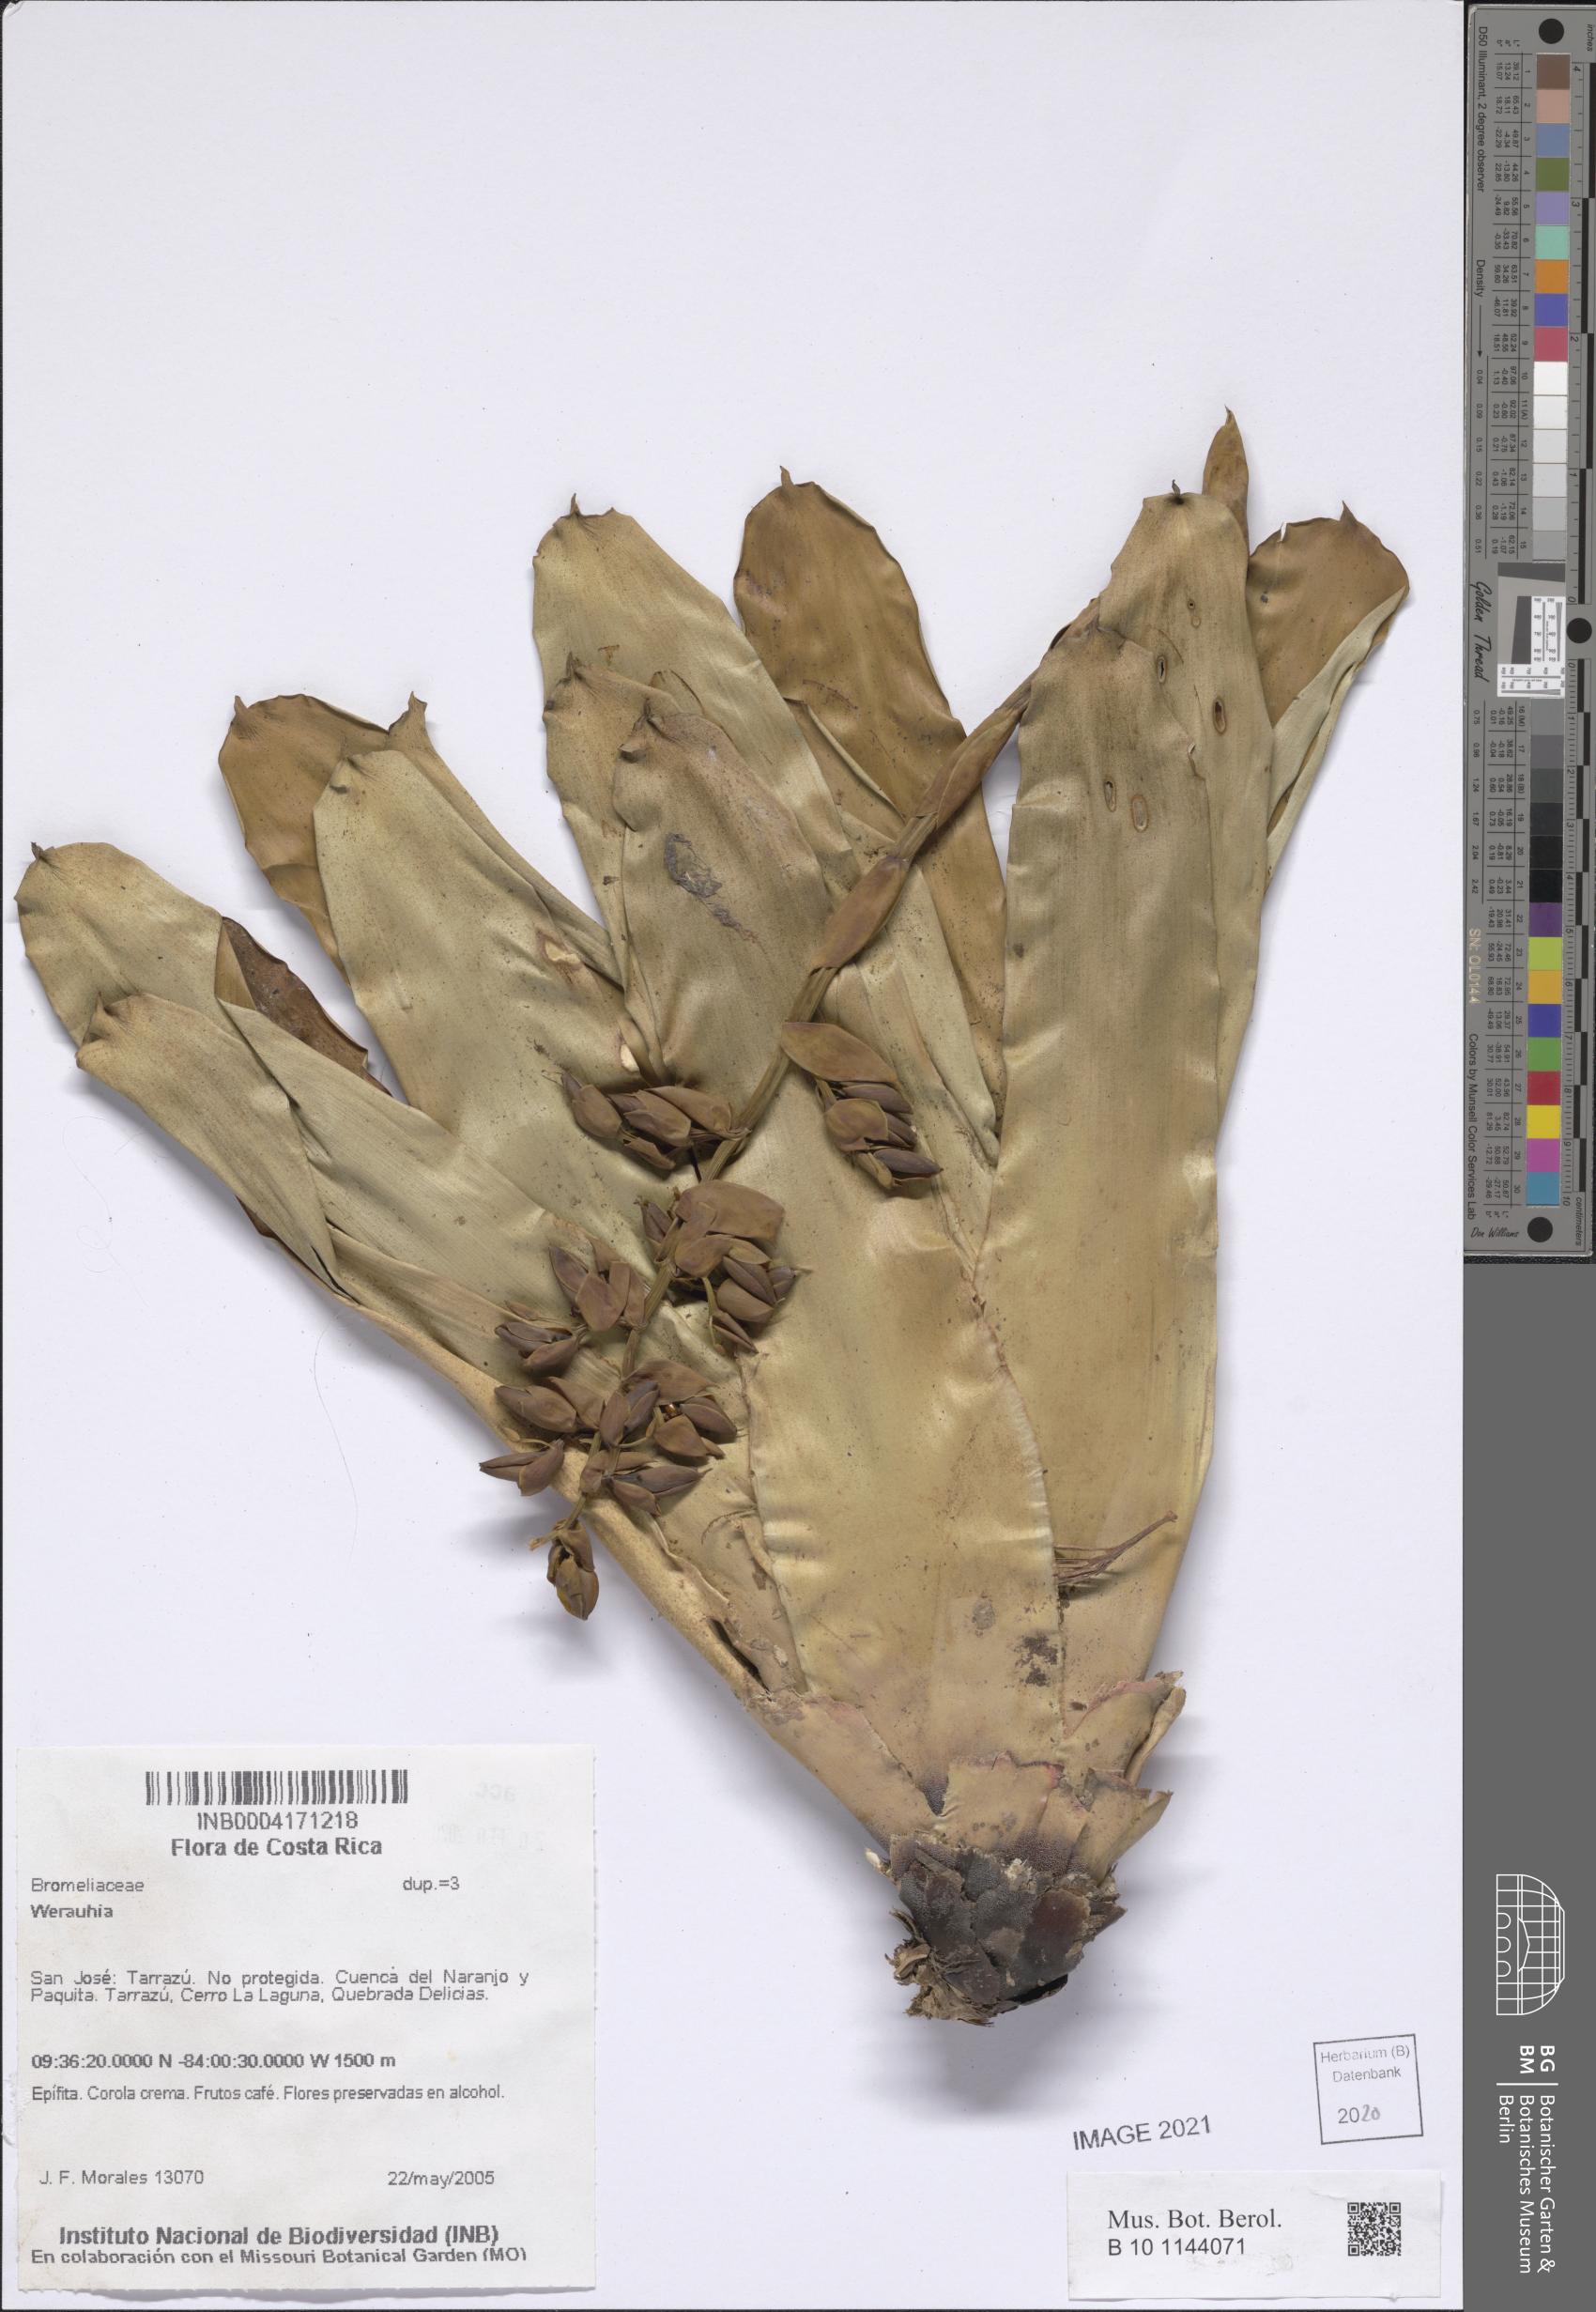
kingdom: Plantae
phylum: Tracheophyta
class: Liliopsida
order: Poales
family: Bromeliaceae
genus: Werauhia
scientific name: Werauhia
